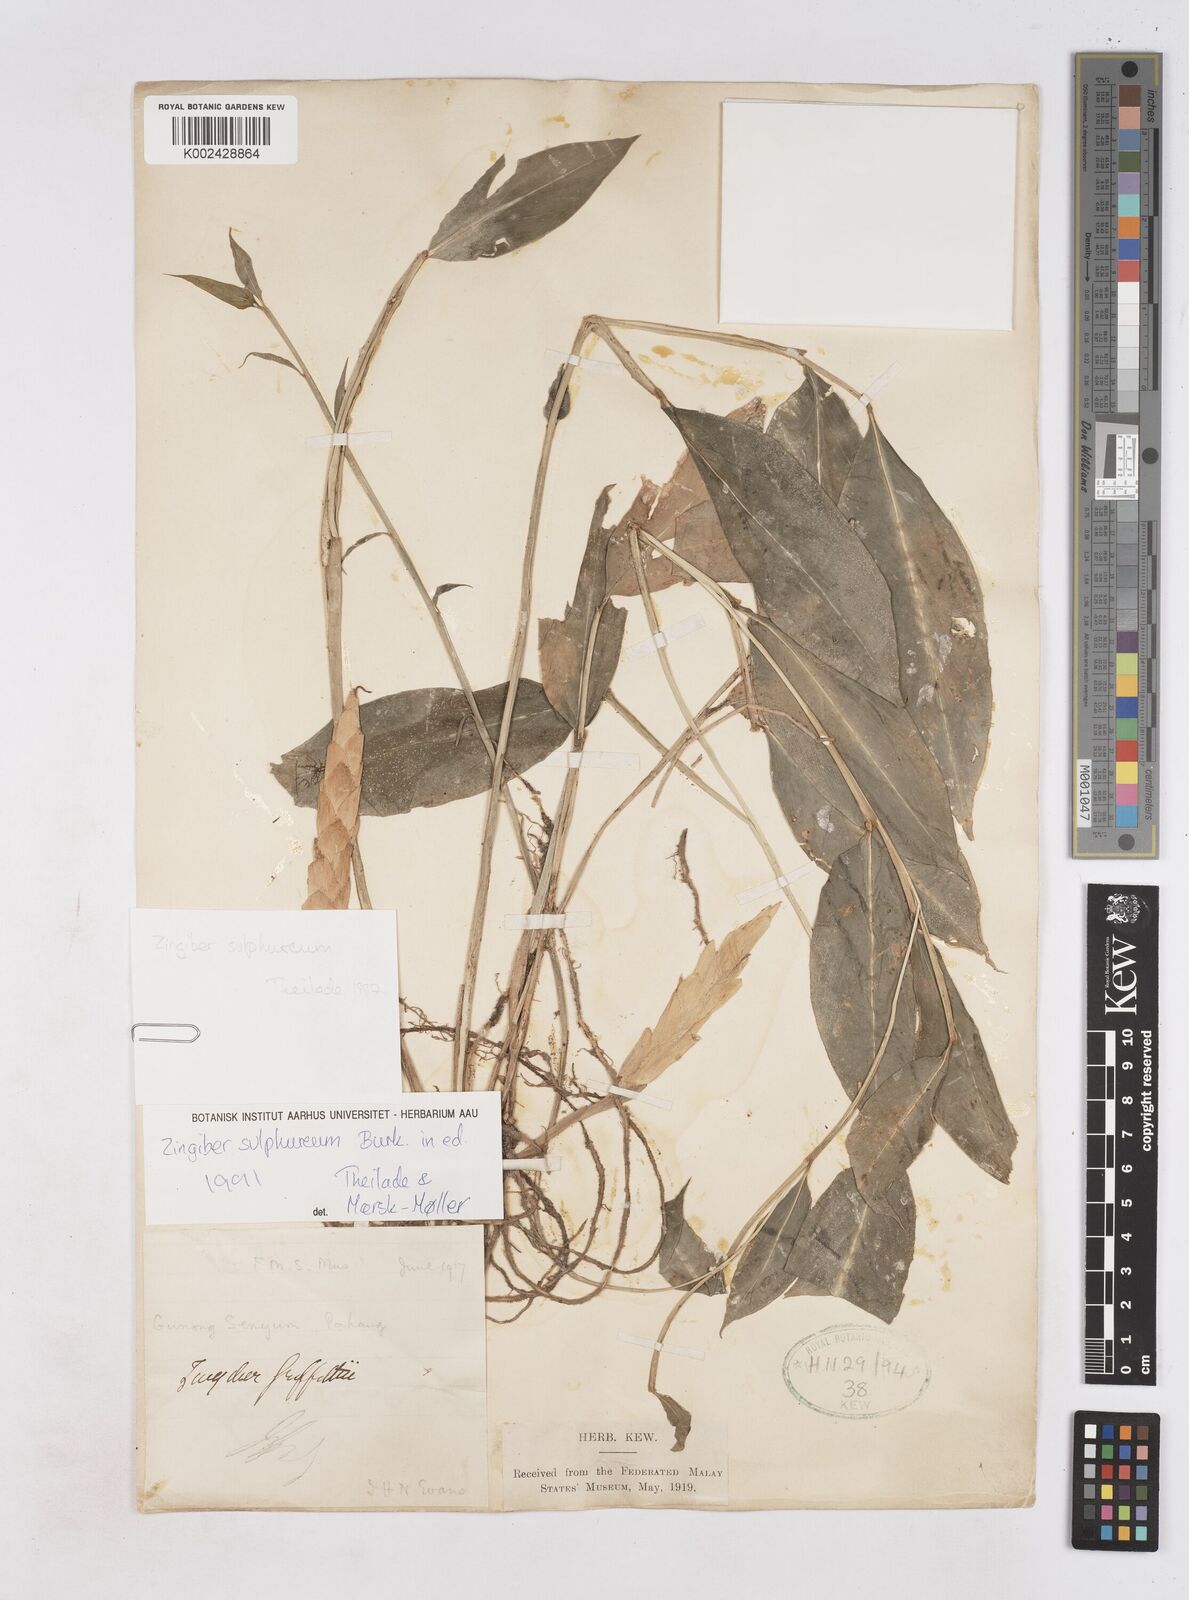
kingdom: Plantae
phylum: Tracheophyta
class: Liliopsida
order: Zingiberales
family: Zingiberaceae
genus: Zingiber
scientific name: Zingiber sulphureum
